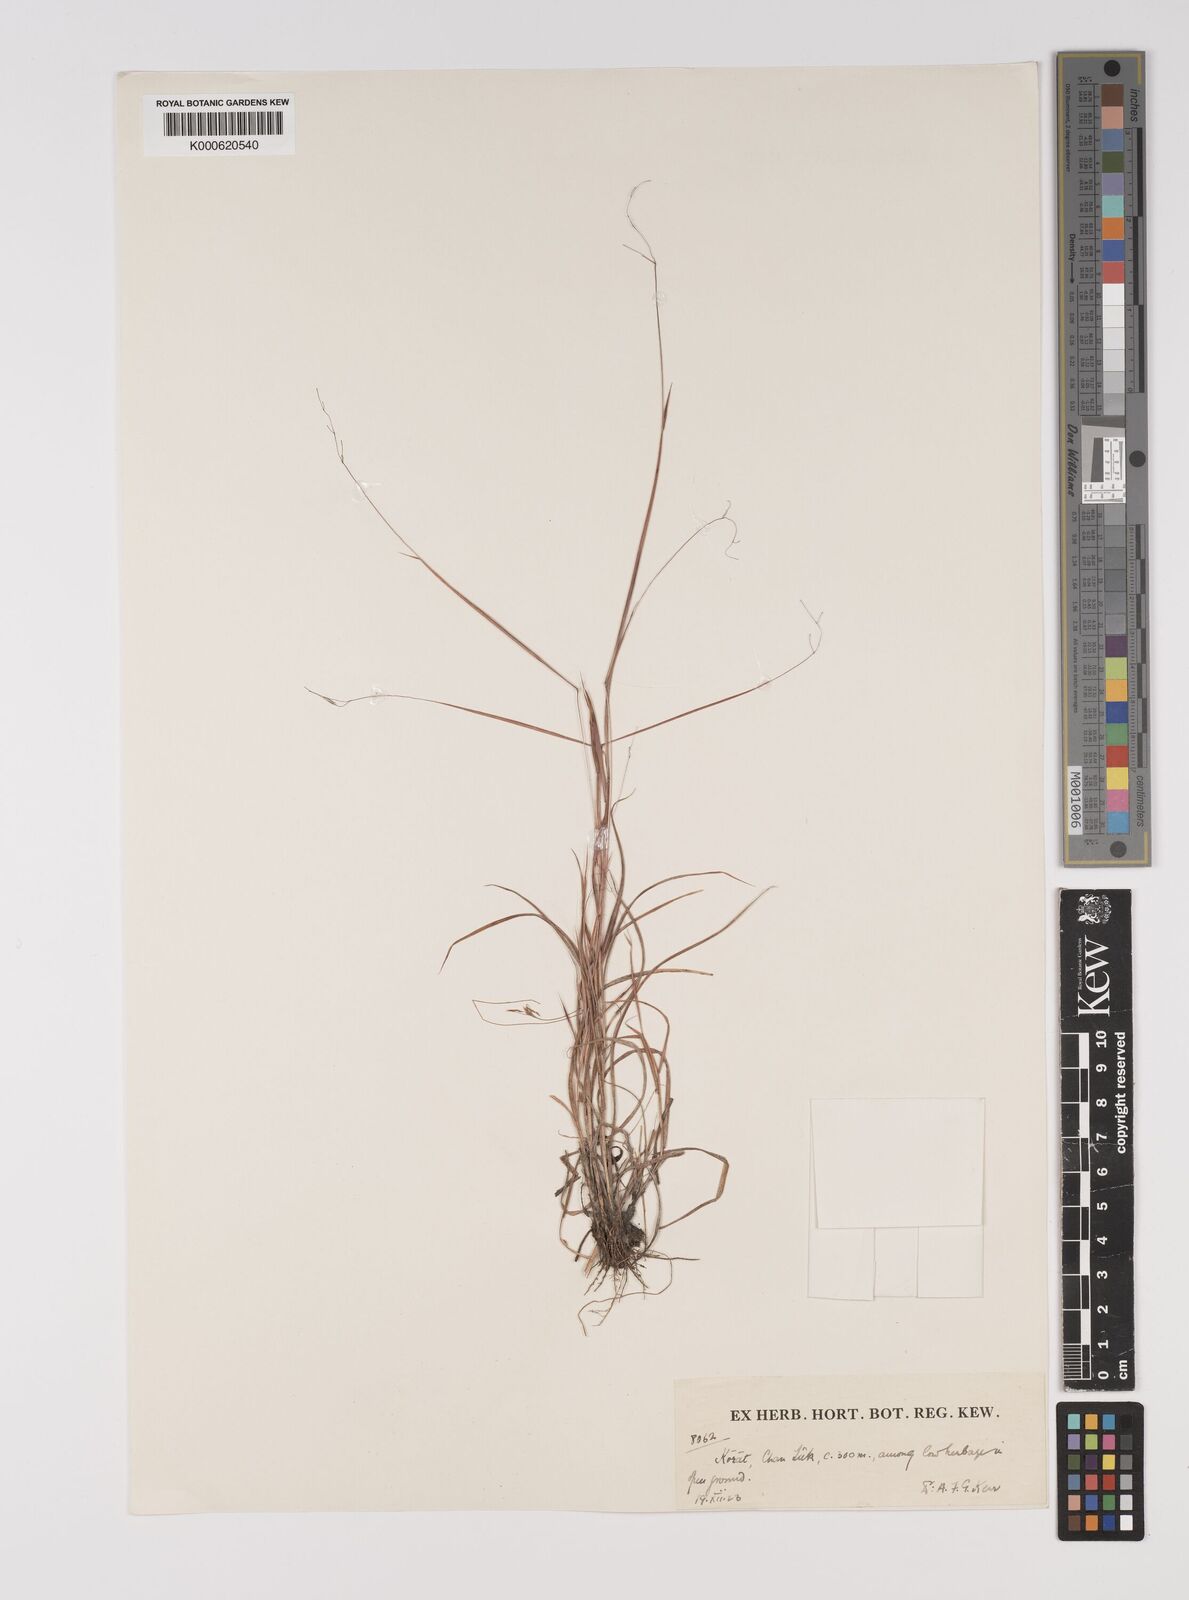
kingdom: Plantae
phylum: Tracheophyta
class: Liliopsida
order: Poales
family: Poaceae
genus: Capillipedium
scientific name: Capillipedium
